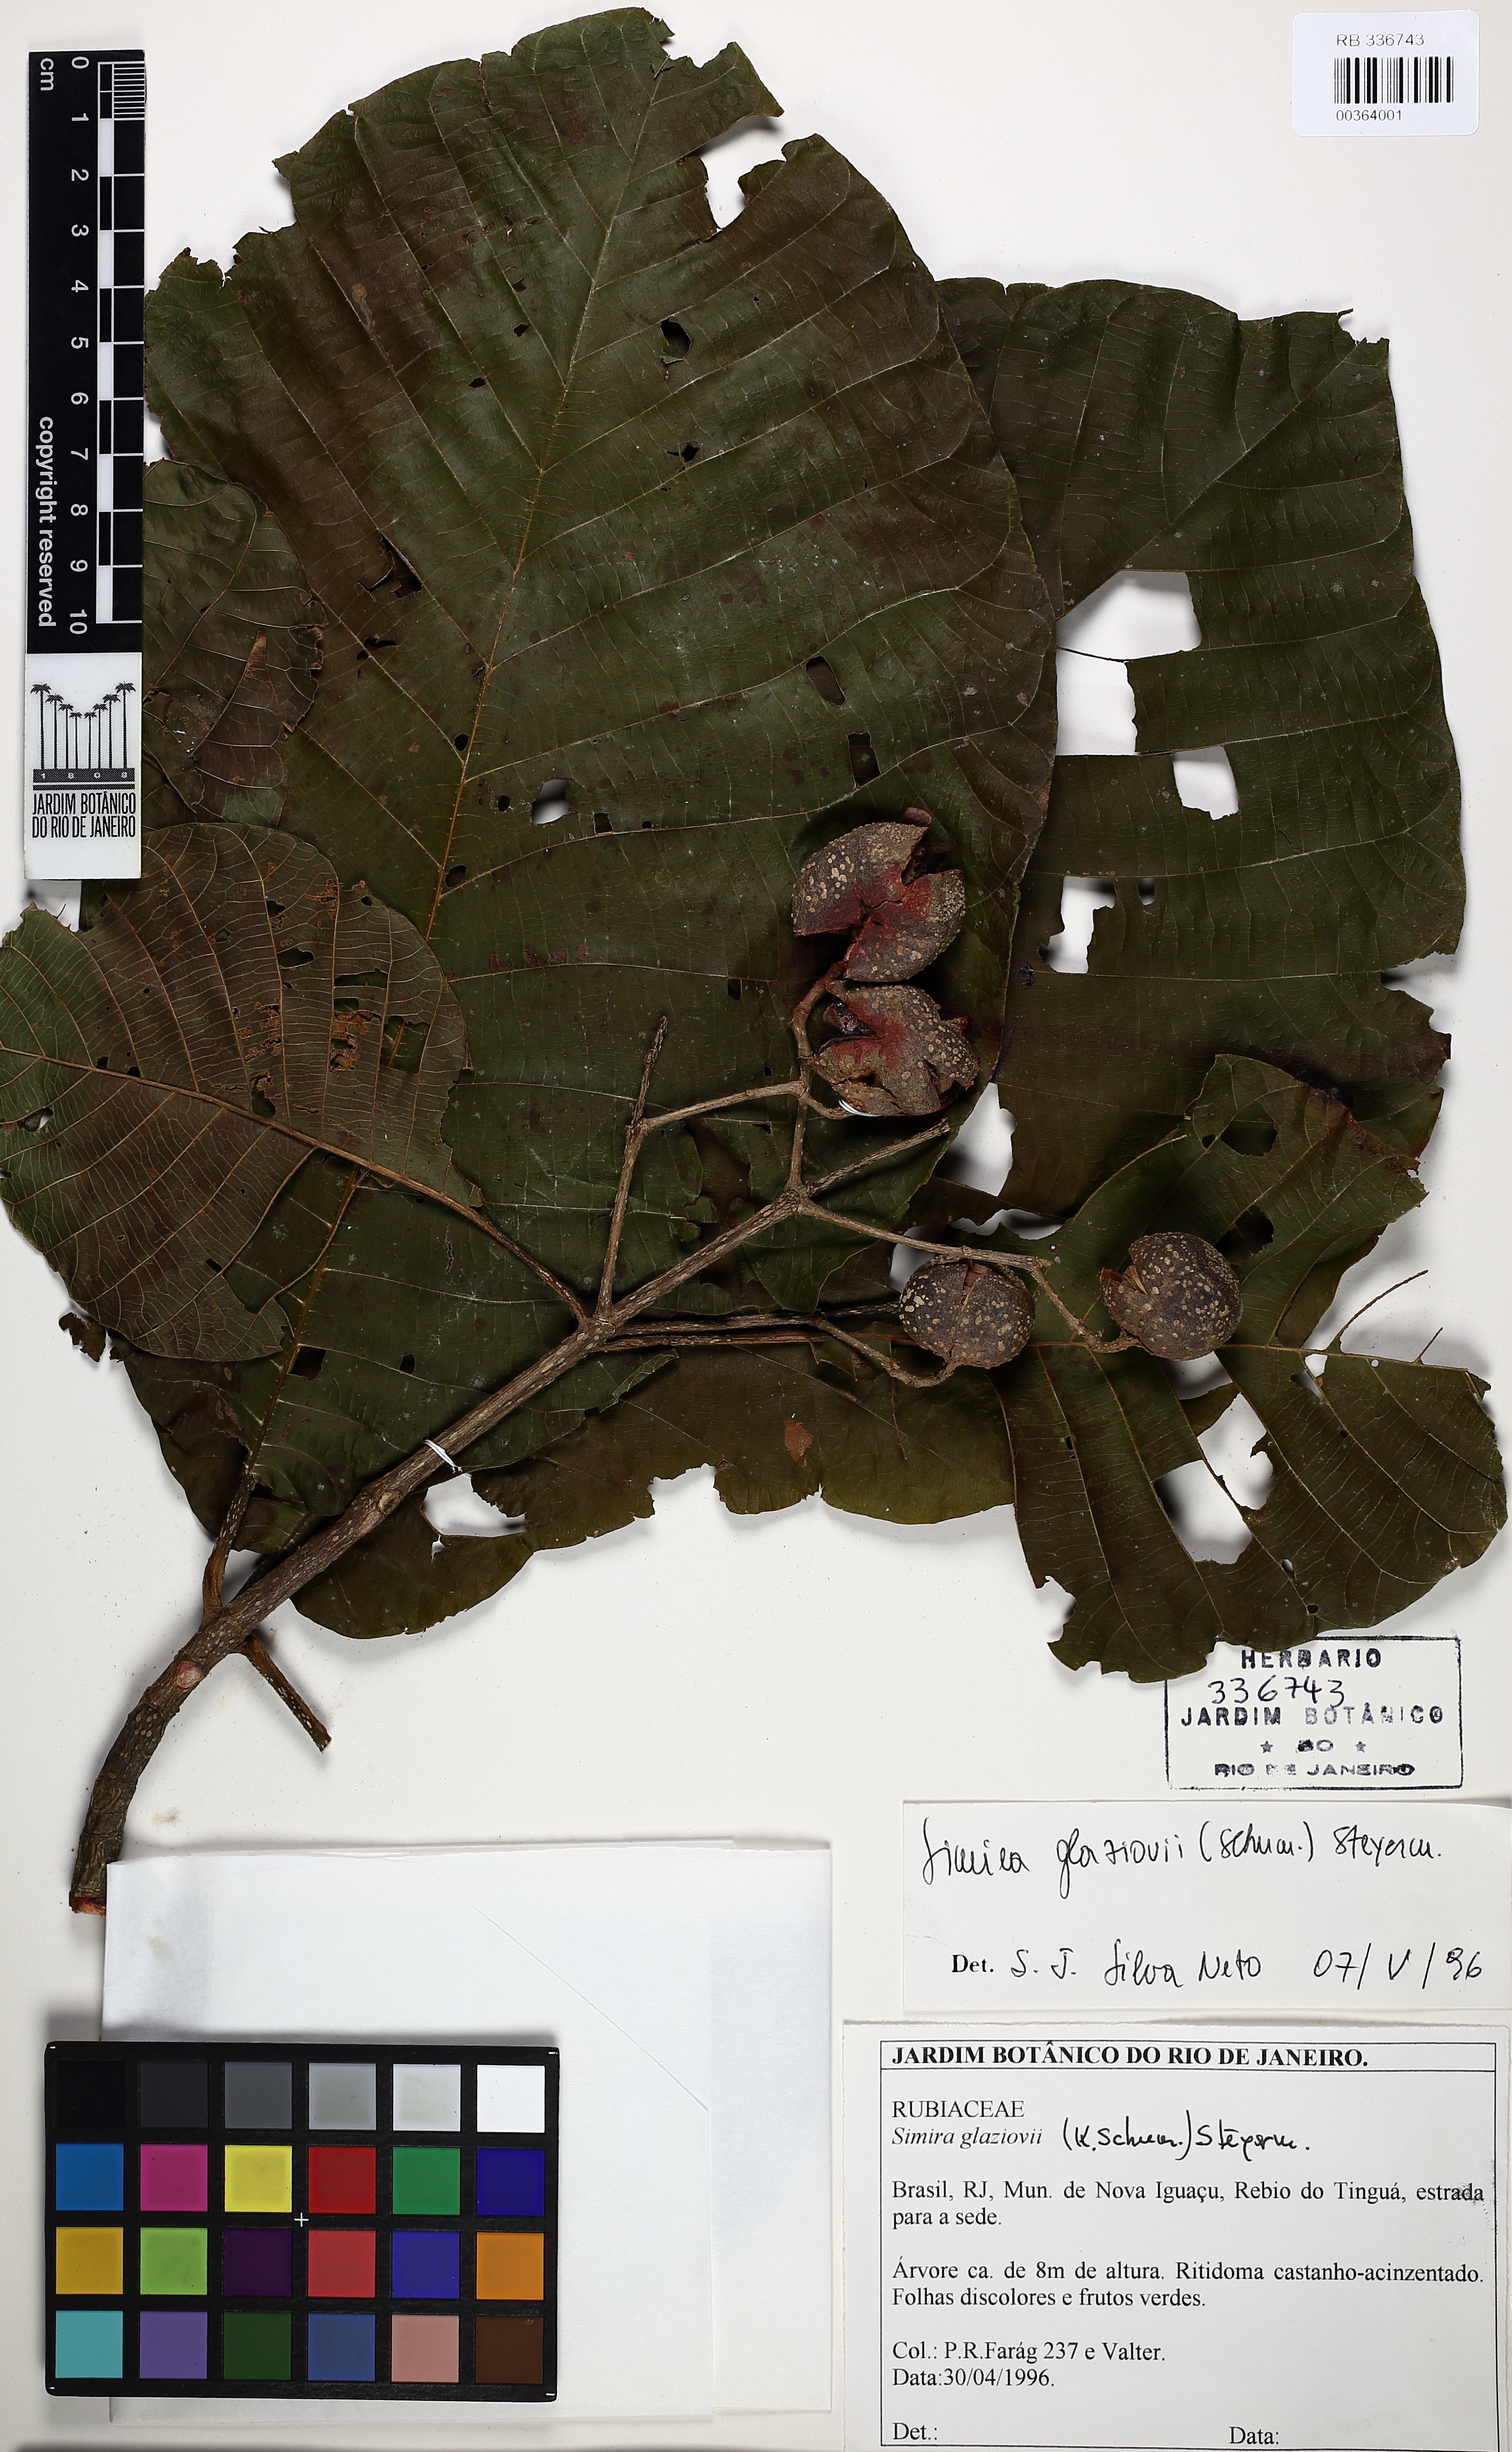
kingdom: Plantae
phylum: Tracheophyta
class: Magnoliopsida
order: Gentianales
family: Rubiaceae
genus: Simira
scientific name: Simira alba
